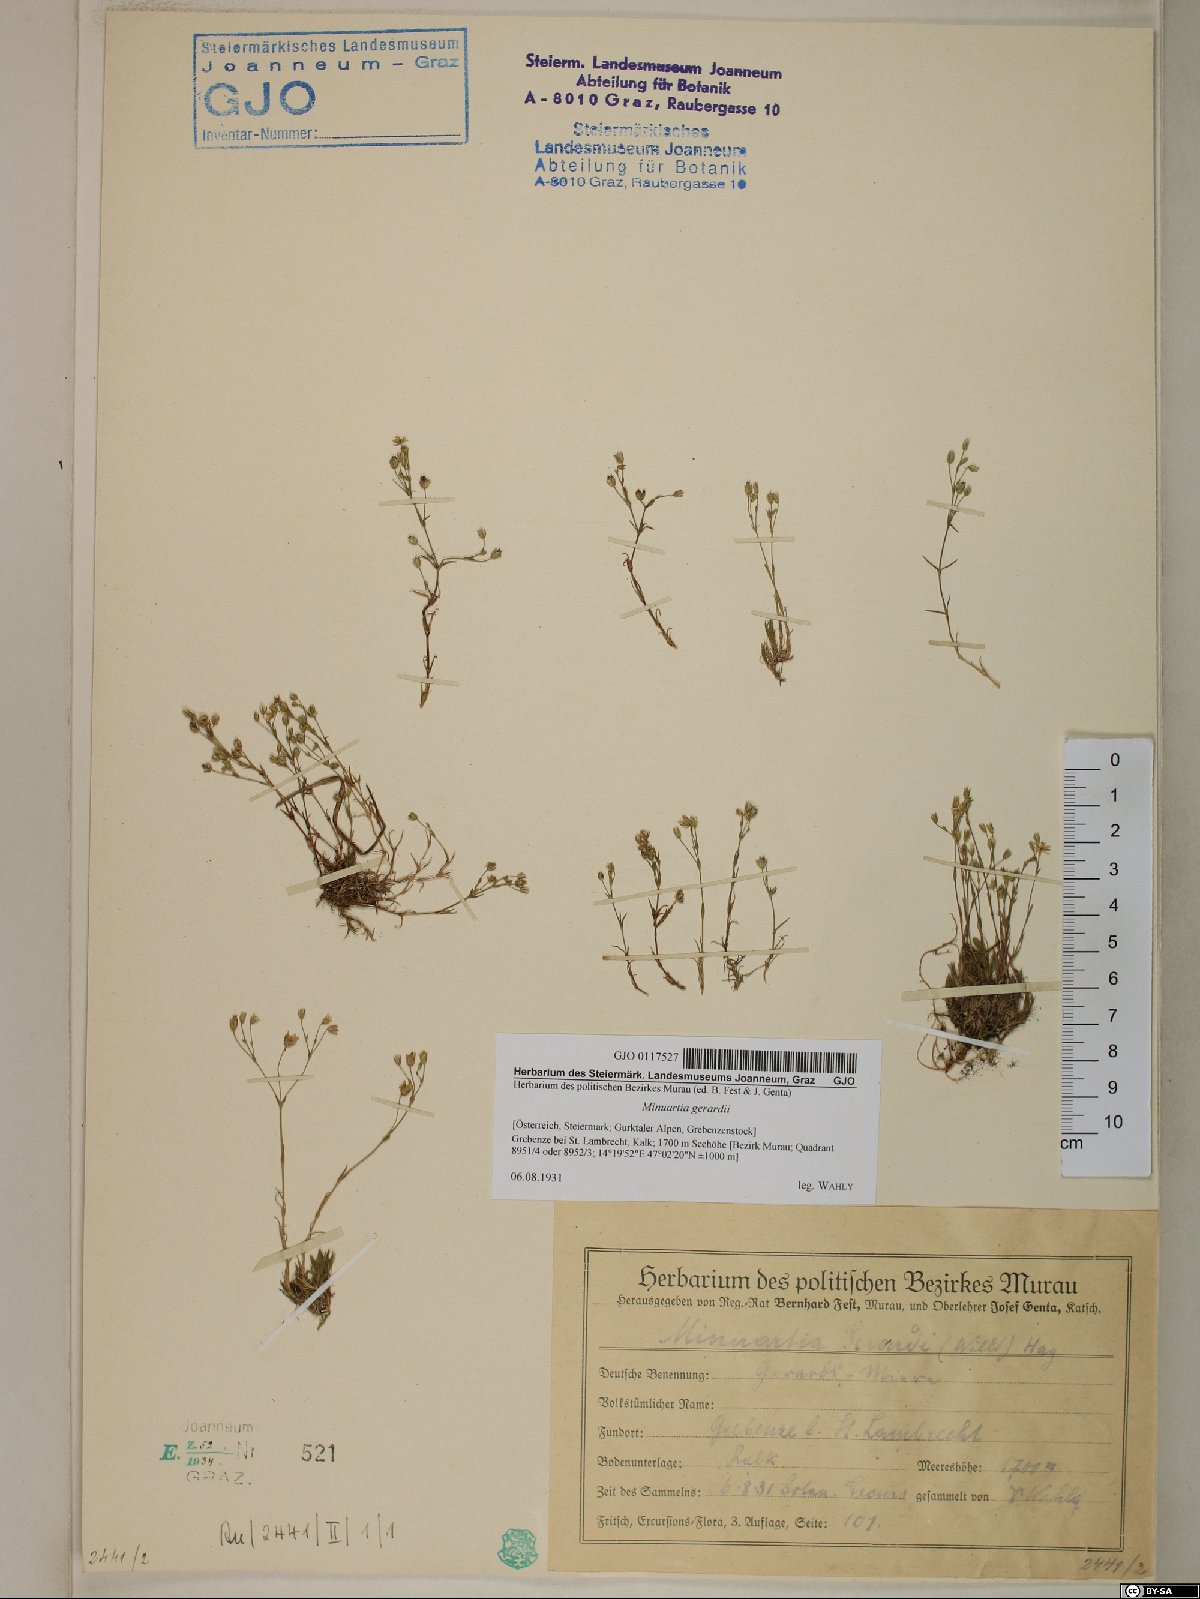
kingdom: Plantae
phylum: Tracheophyta
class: Magnoliopsida
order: Caryophyllales
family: Caryophyllaceae
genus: Sabulina
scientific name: Sabulina verna
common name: Spring sandwort
